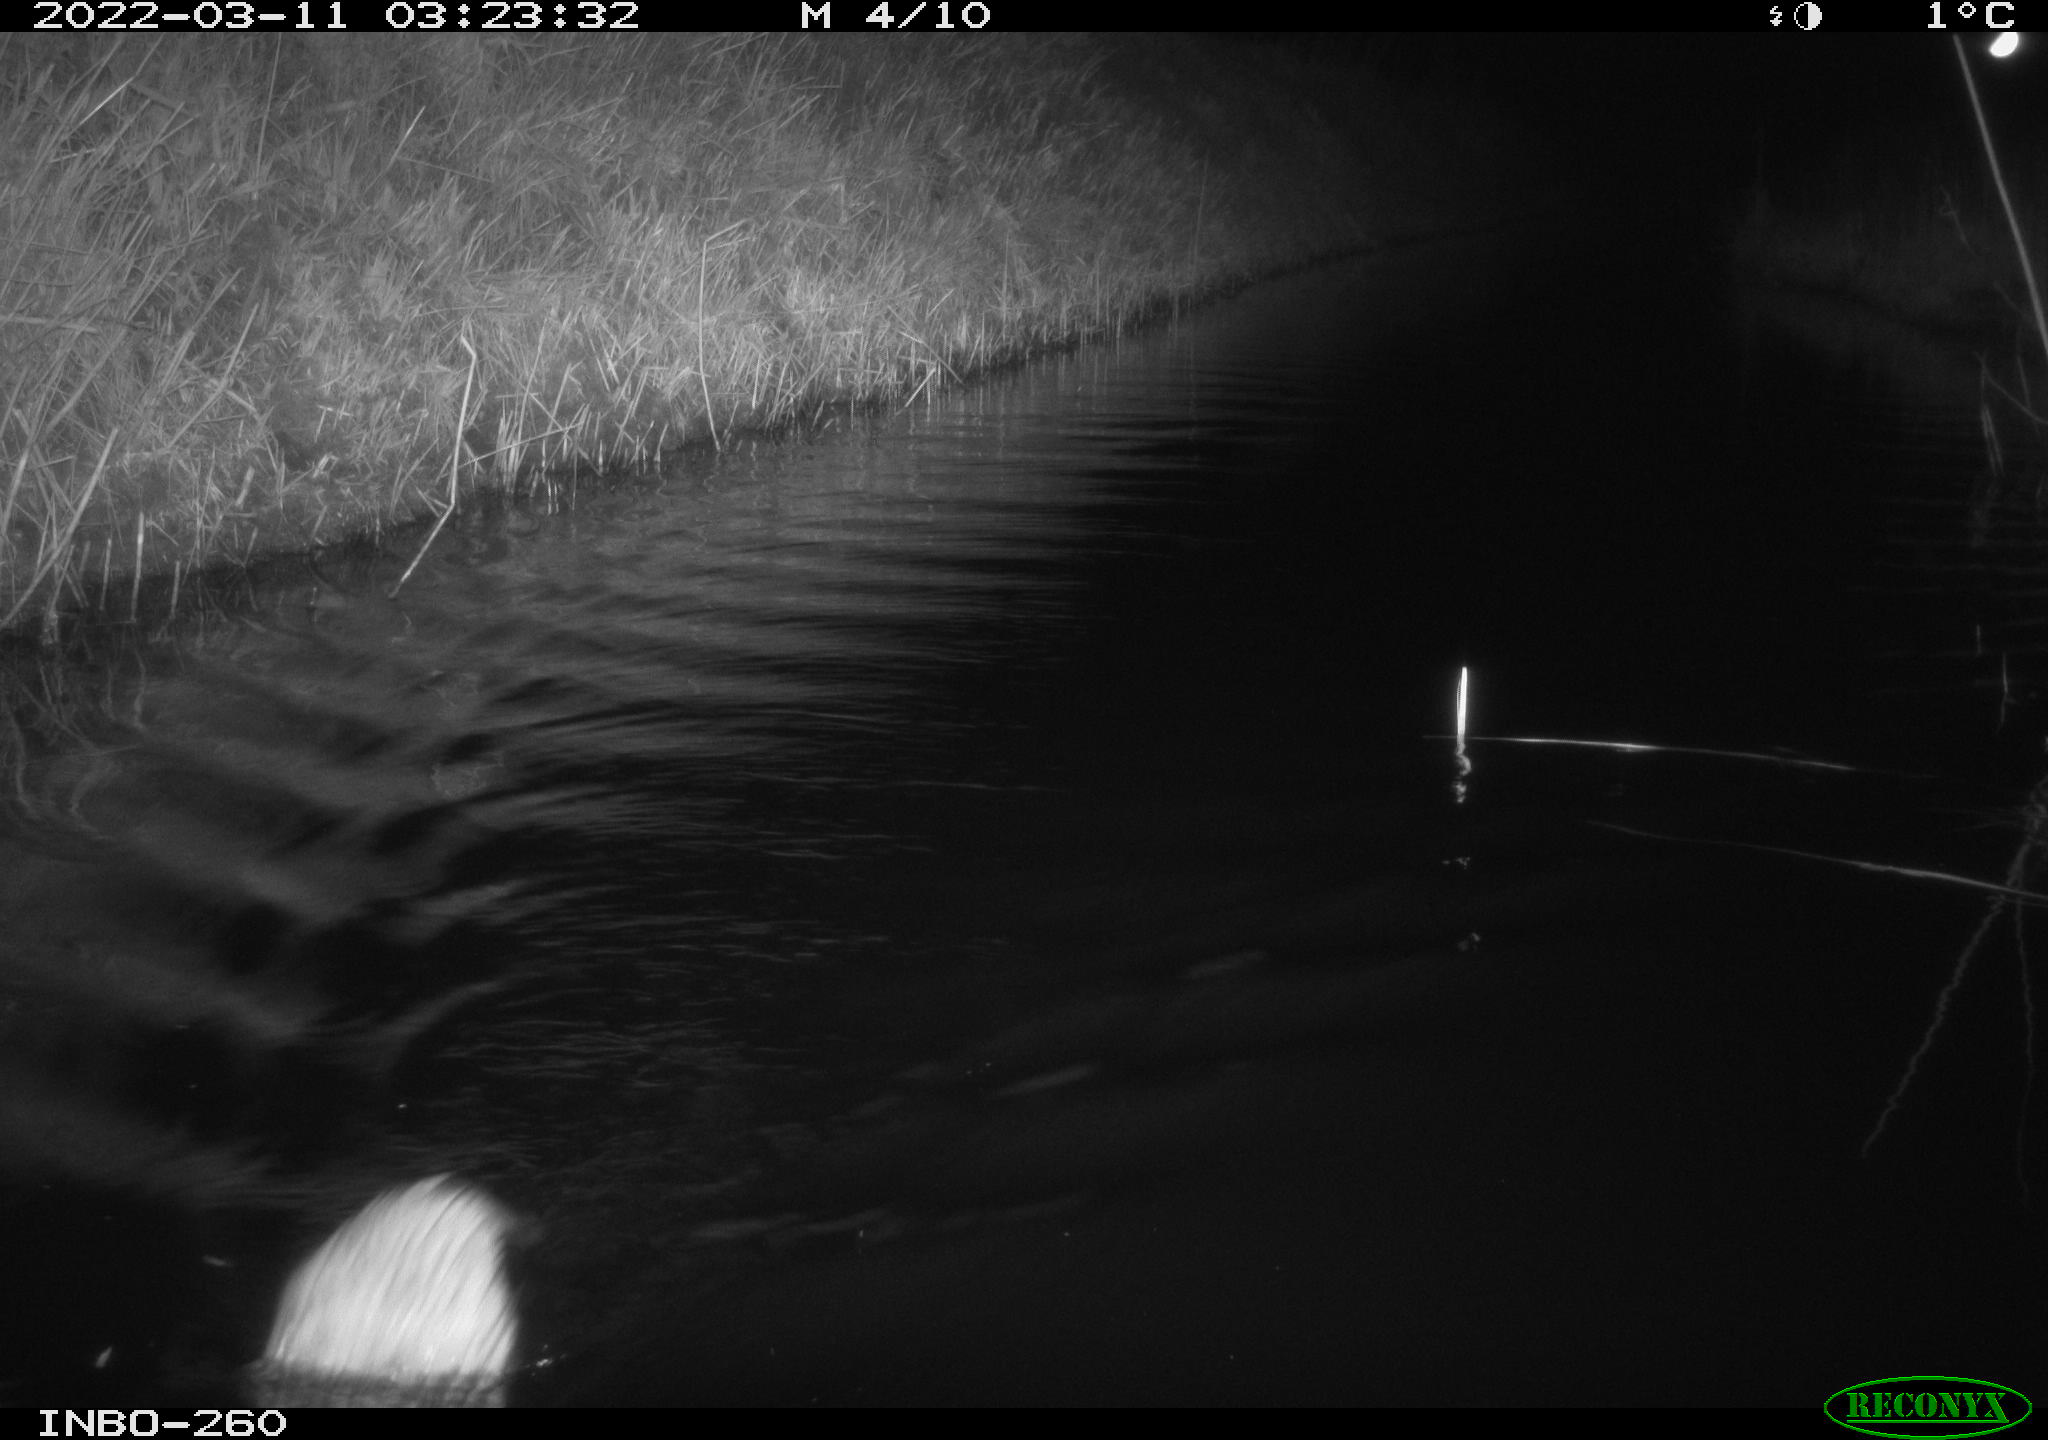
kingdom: Animalia
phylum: Chordata
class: Mammalia
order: Rodentia
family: Cricetidae
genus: Ondatra
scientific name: Ondatra zibethicus
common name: Muskrat
